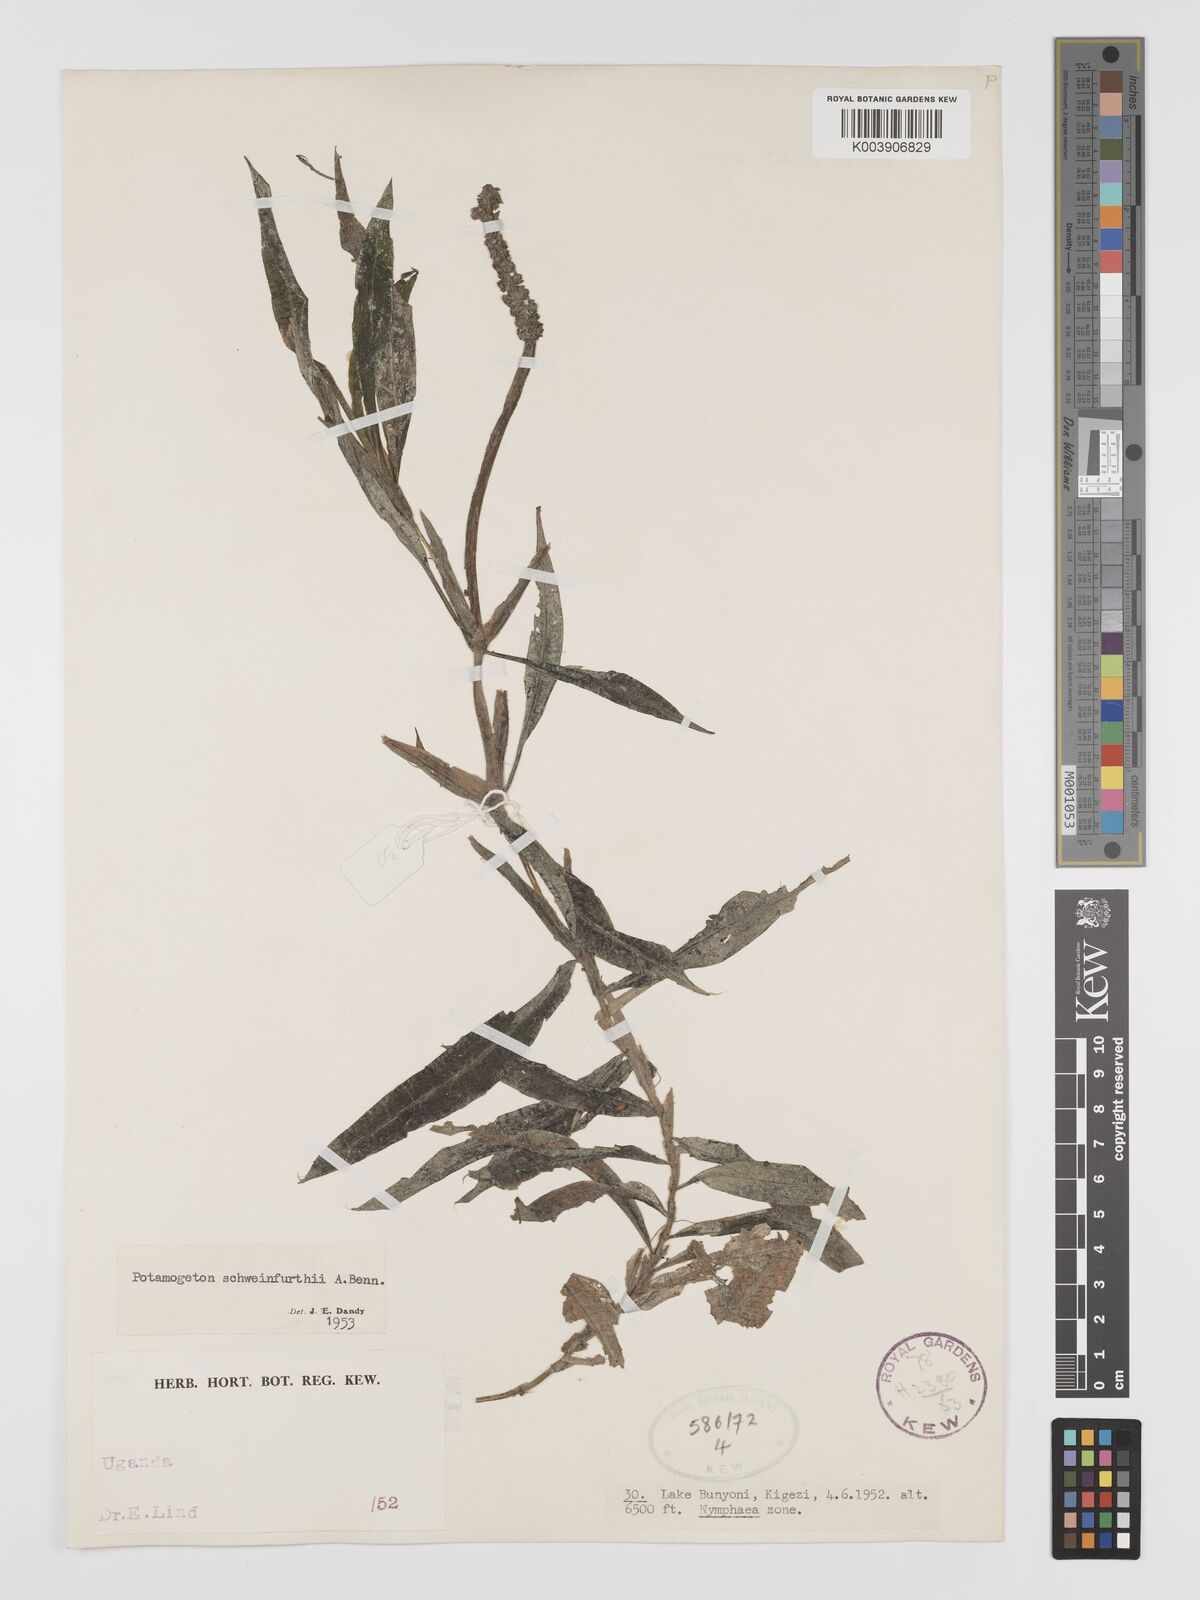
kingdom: Plantae
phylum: Tracheophyta
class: Liliopsida
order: Alismatales
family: Potamogetonaceae
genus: Potamogeton
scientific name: Potamogeton schweinfurthii
